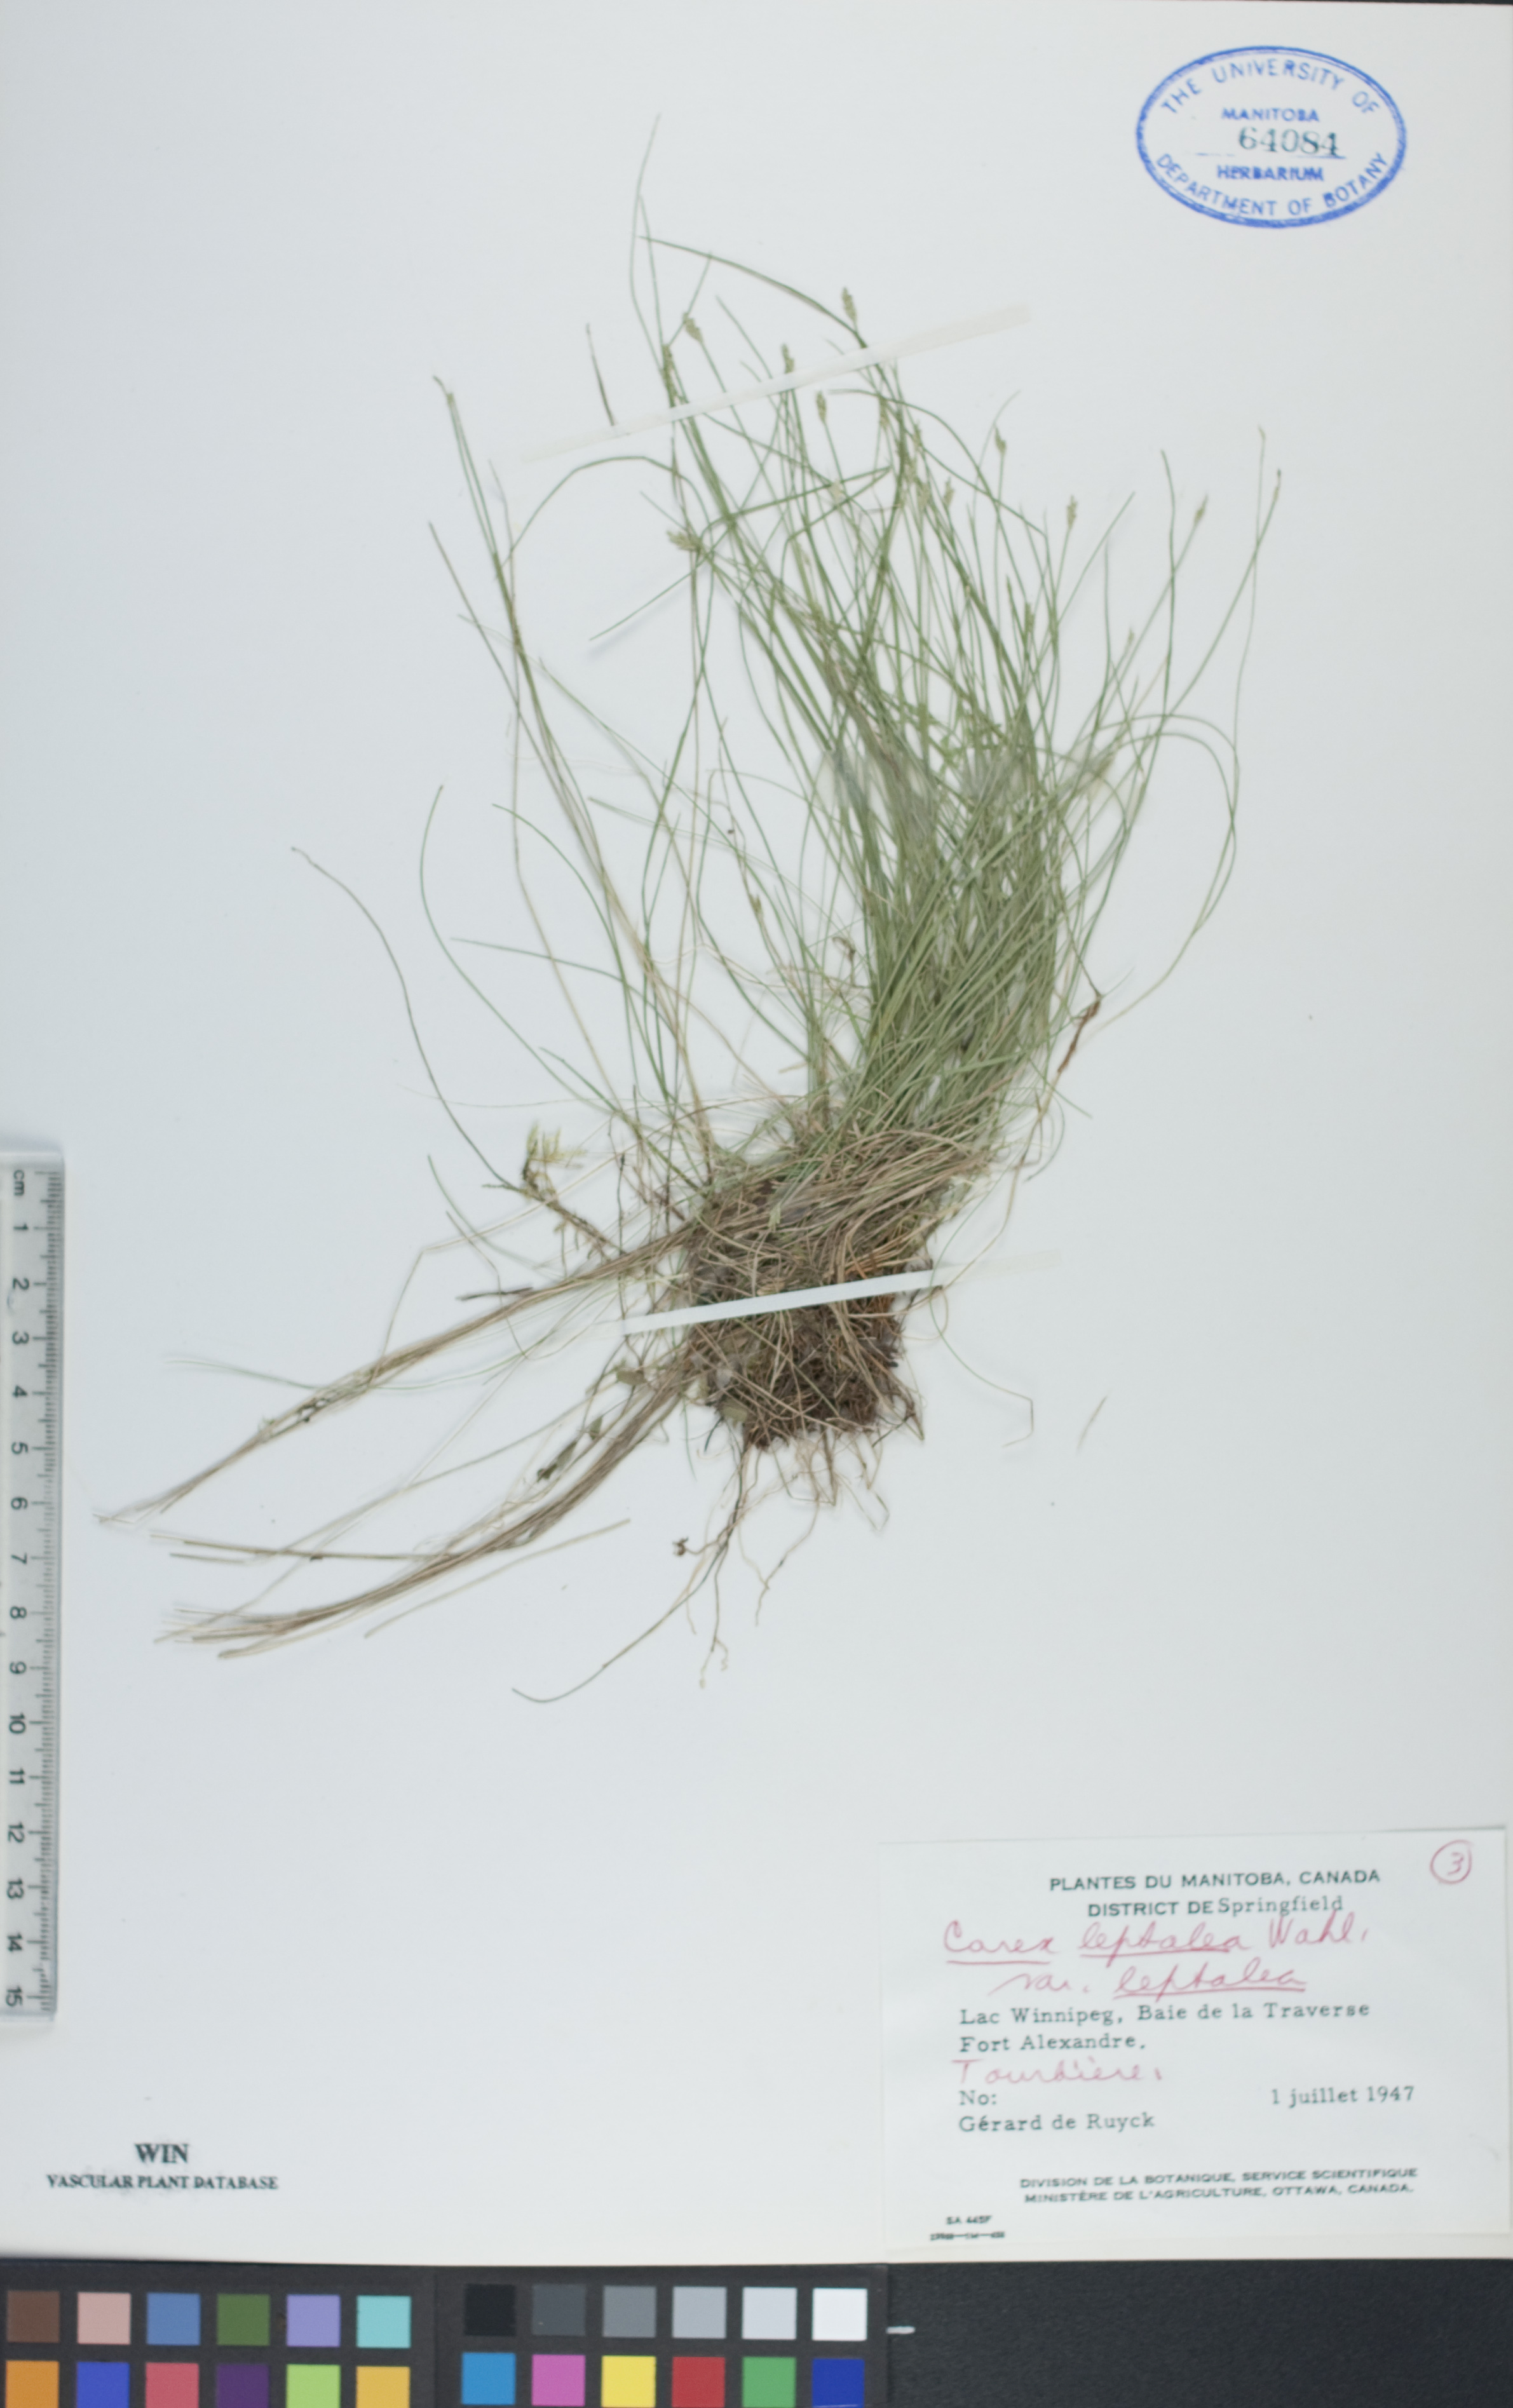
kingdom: Plantae
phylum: Tracheophyta
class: Liliopsida
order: Poales
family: Cyperaceae
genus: Carex
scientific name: Carex leptalea
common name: Bristly-stalked sedge
